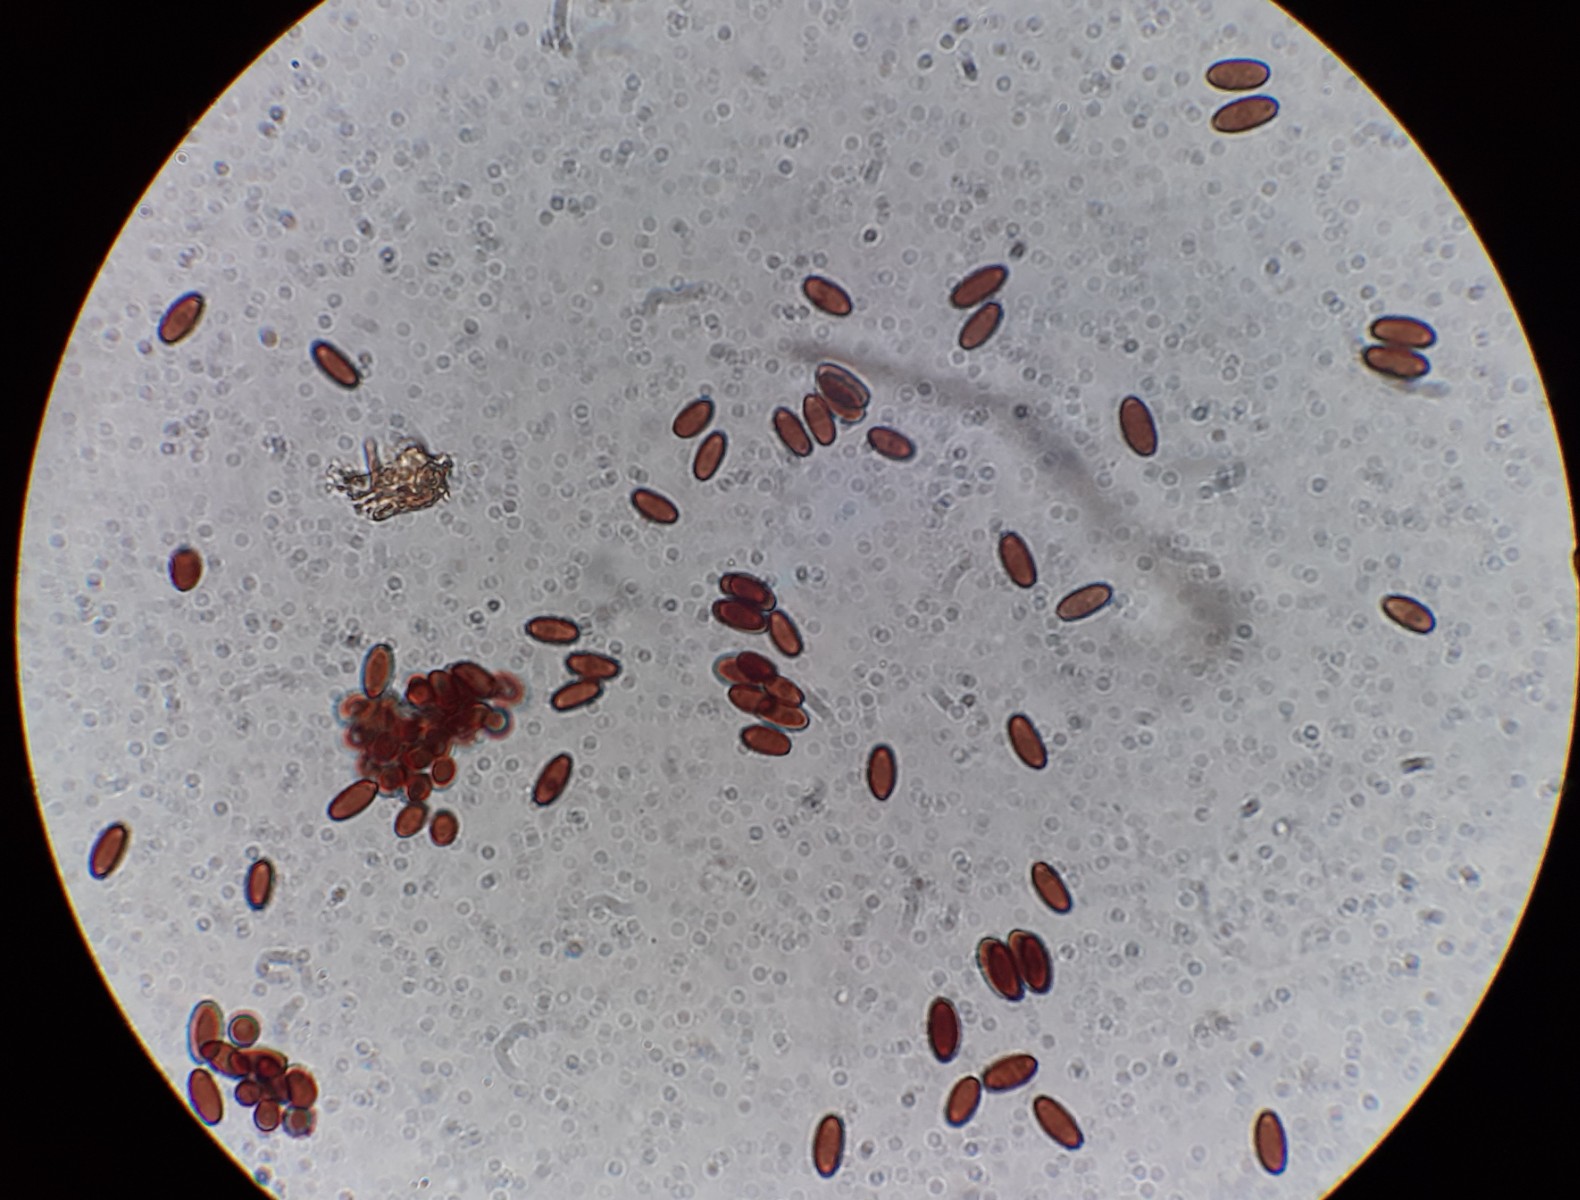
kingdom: Fungi
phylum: Basidiomycota
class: Agaricomycetes
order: Agaricales
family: Psathyrellaceae
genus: Coprinellus
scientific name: Coprinellus
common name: blækhat
